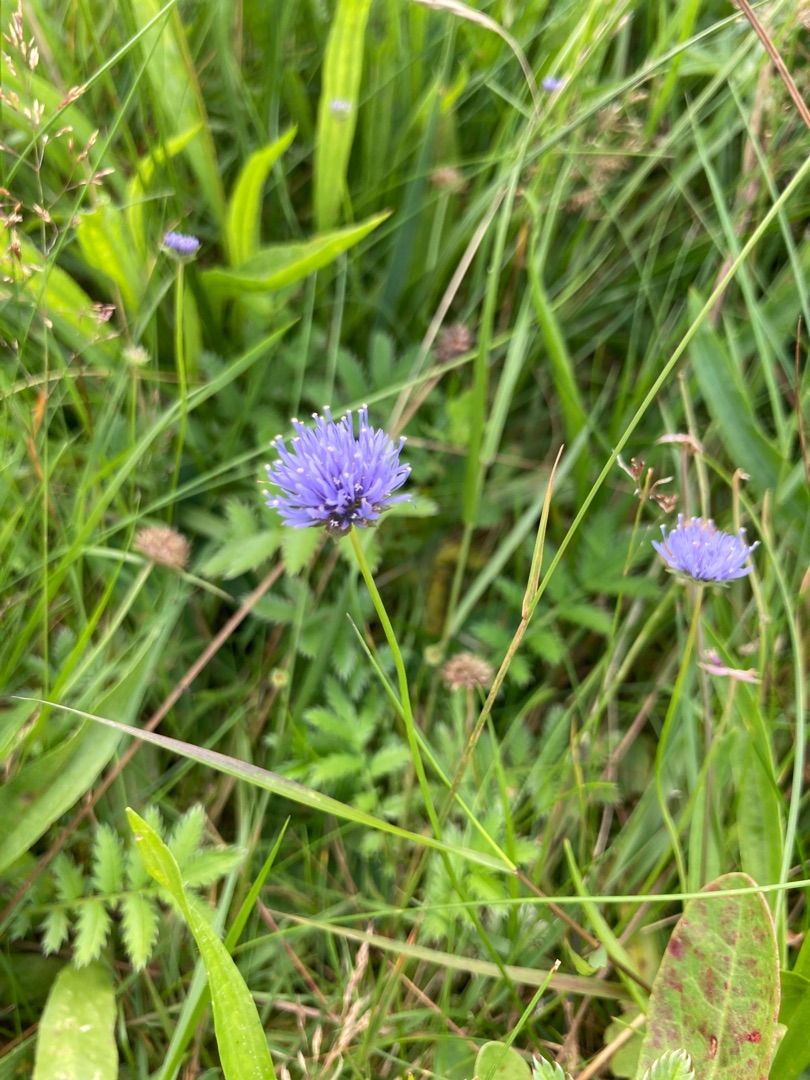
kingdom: Plantae
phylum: Tracheophyta
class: Magnoliopsida
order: Asterales
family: Campanulaceae
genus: Jasione
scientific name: Jasione montana
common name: Blåmunke
